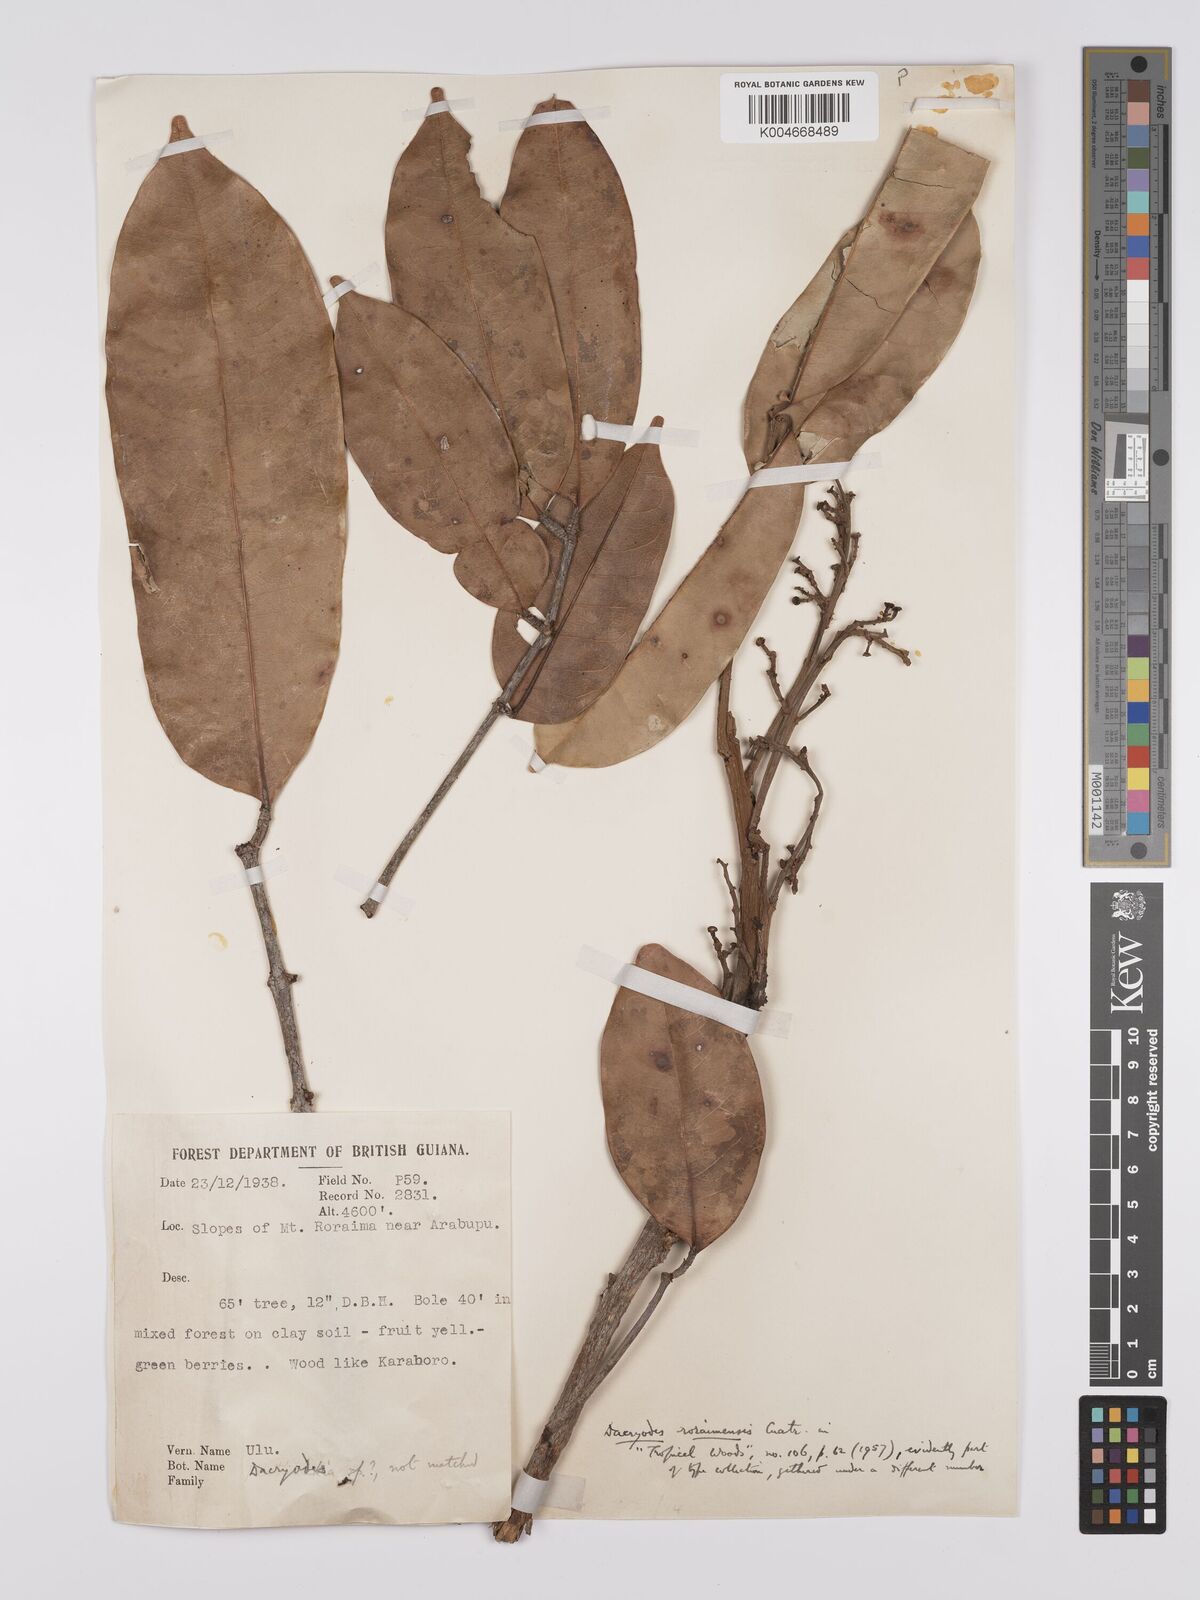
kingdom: Plantae
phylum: Tracheophyta
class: Magnoliopsida
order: Sapindales
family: Burseraceae
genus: Dacryodes
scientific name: Dacryodes roraimensis
